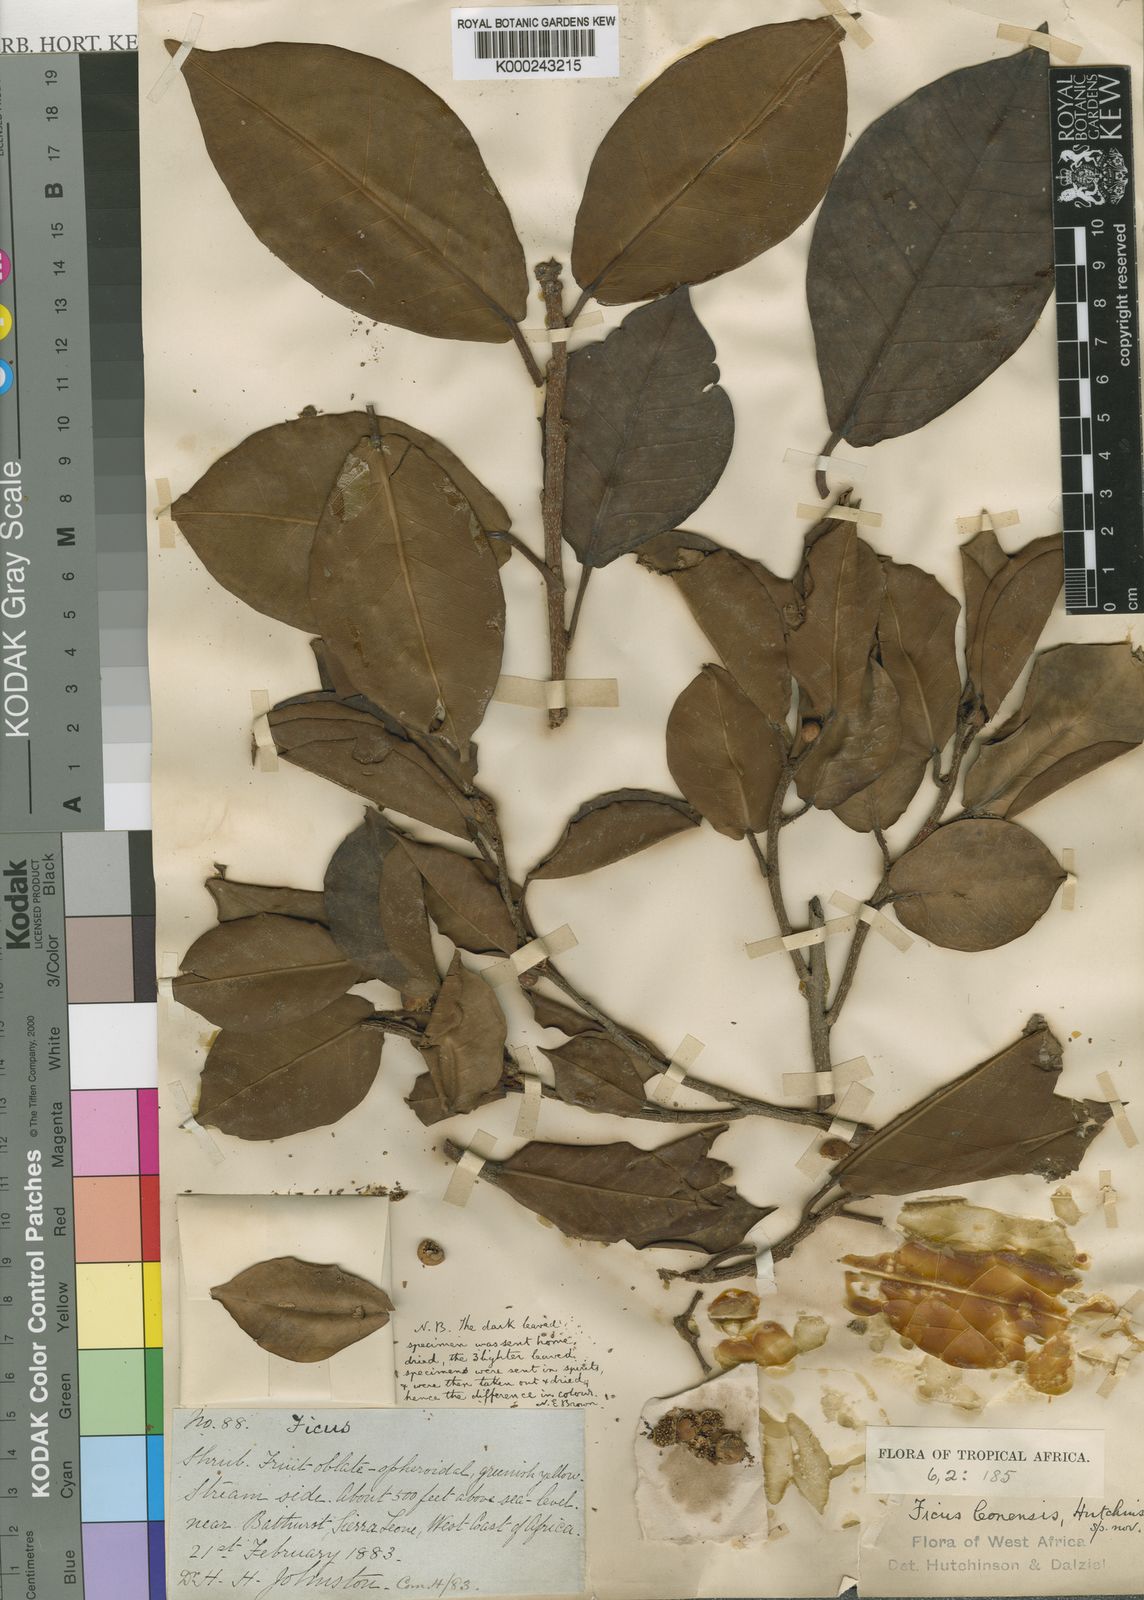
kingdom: Plantae
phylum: Tracheophyta
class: Magnoliopsida
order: Rosales
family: Moraceae
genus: Ficus
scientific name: Ficus leonensis
